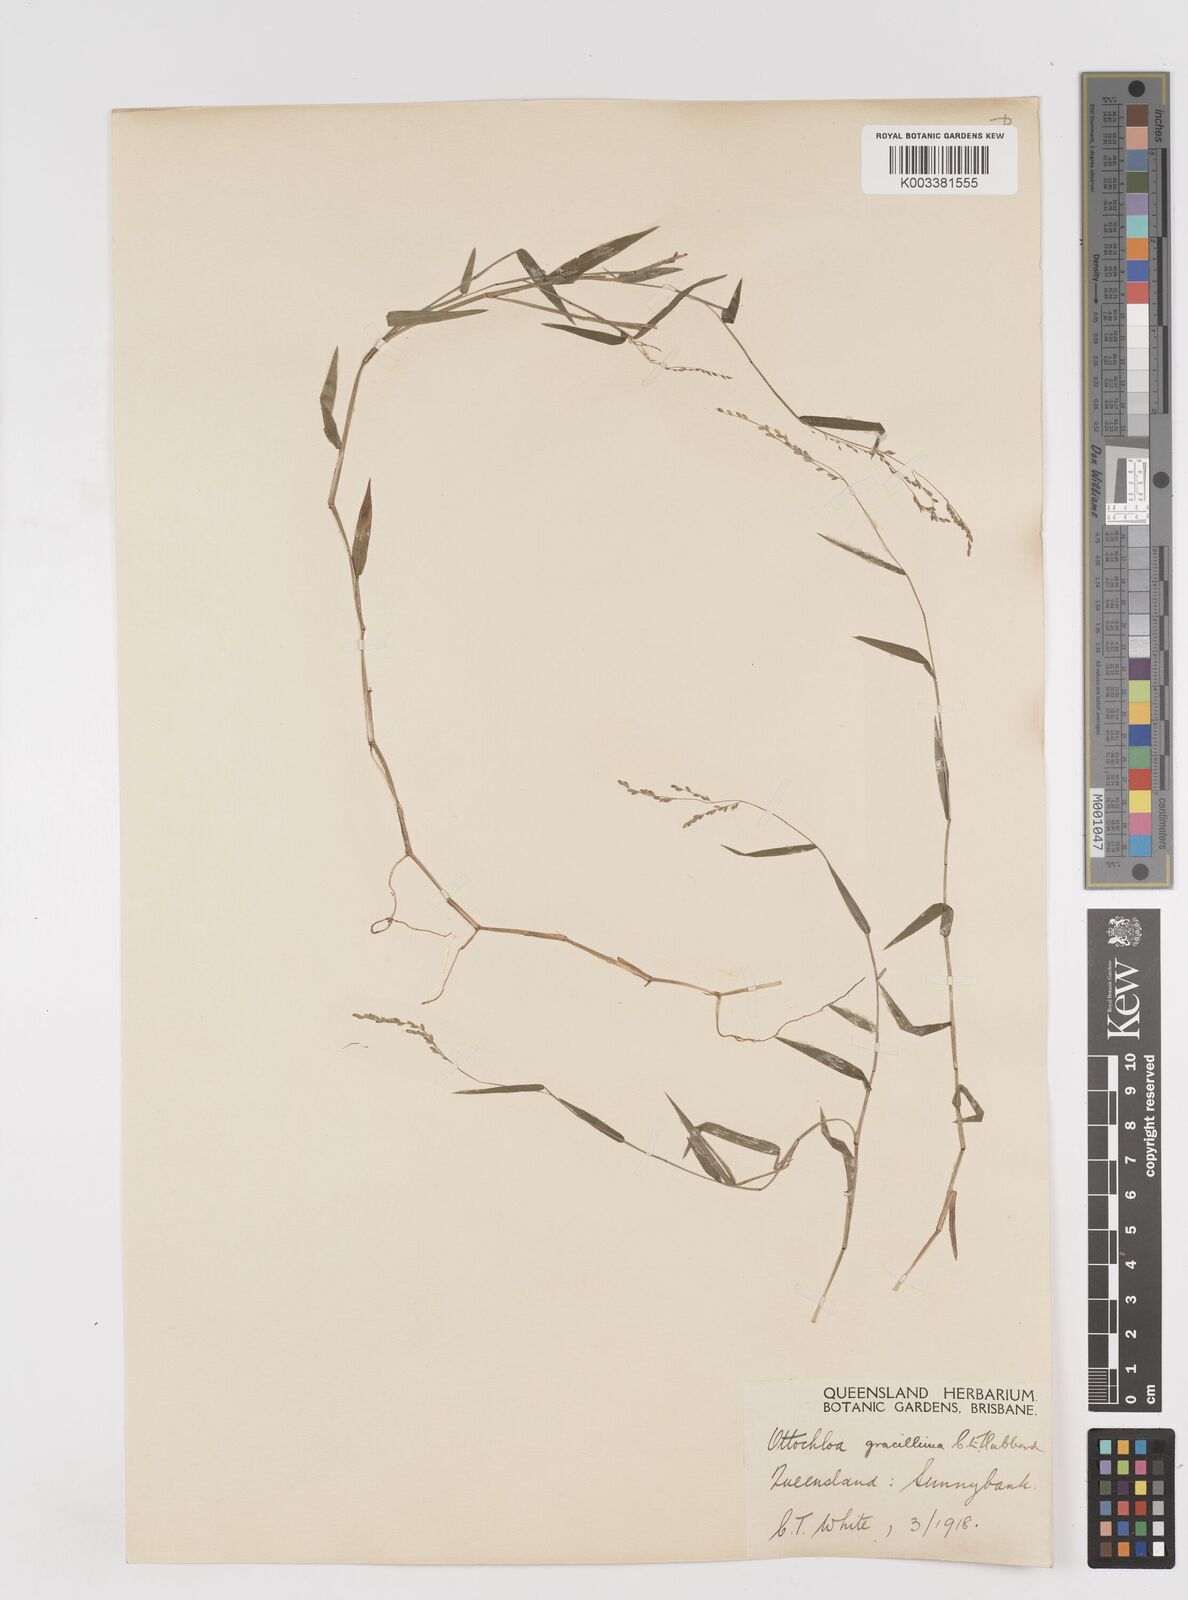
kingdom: Plantae
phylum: Tracheophyta
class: Liliopsida
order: Poales
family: Poaceae
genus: Ottochloa
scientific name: Ottochloa gracillima
